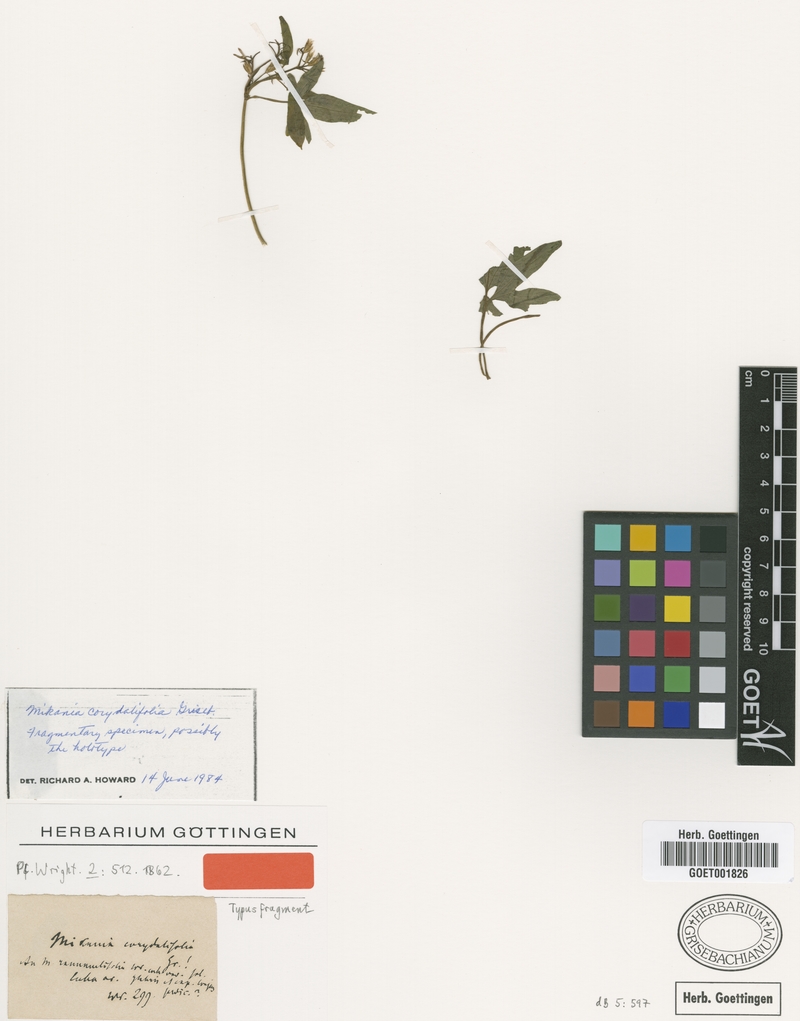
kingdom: Plantae
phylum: Tracheophyta
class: Magnoliopsida
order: Asterales
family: Asteraceae
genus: Mikania
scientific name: Mikania ranunculifolia
